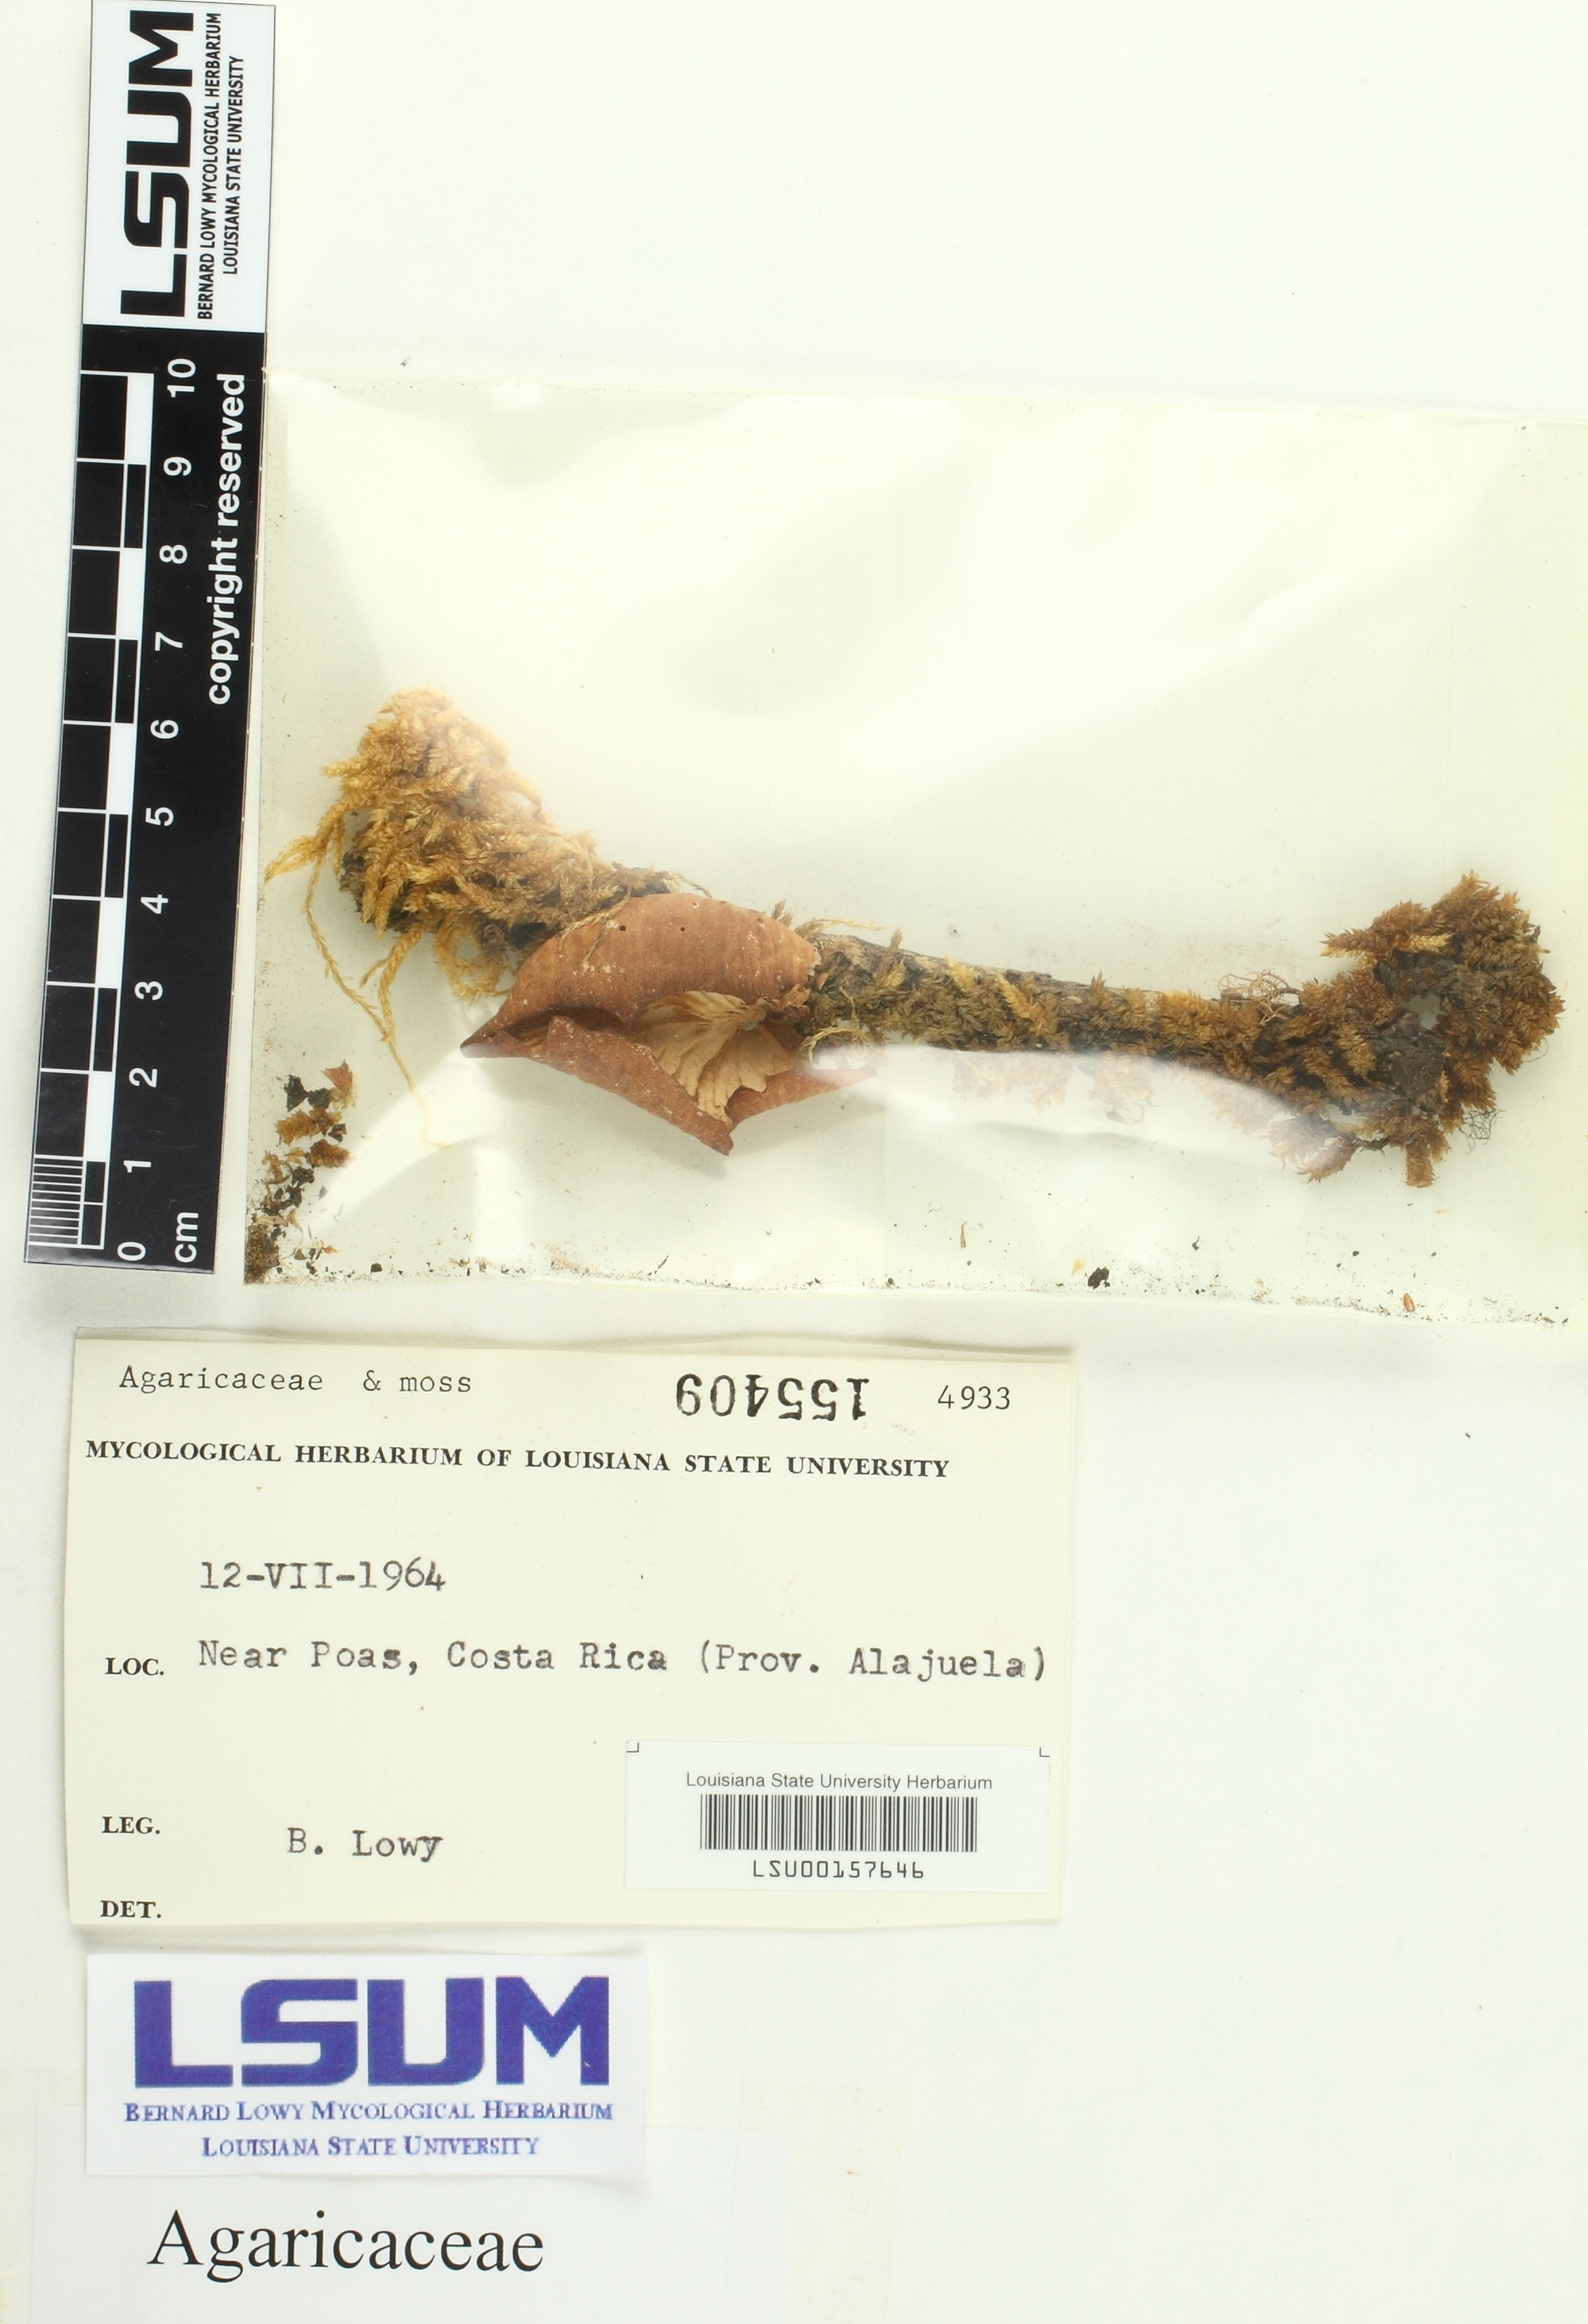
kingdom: Fungi
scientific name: Fungi
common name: Fungi
